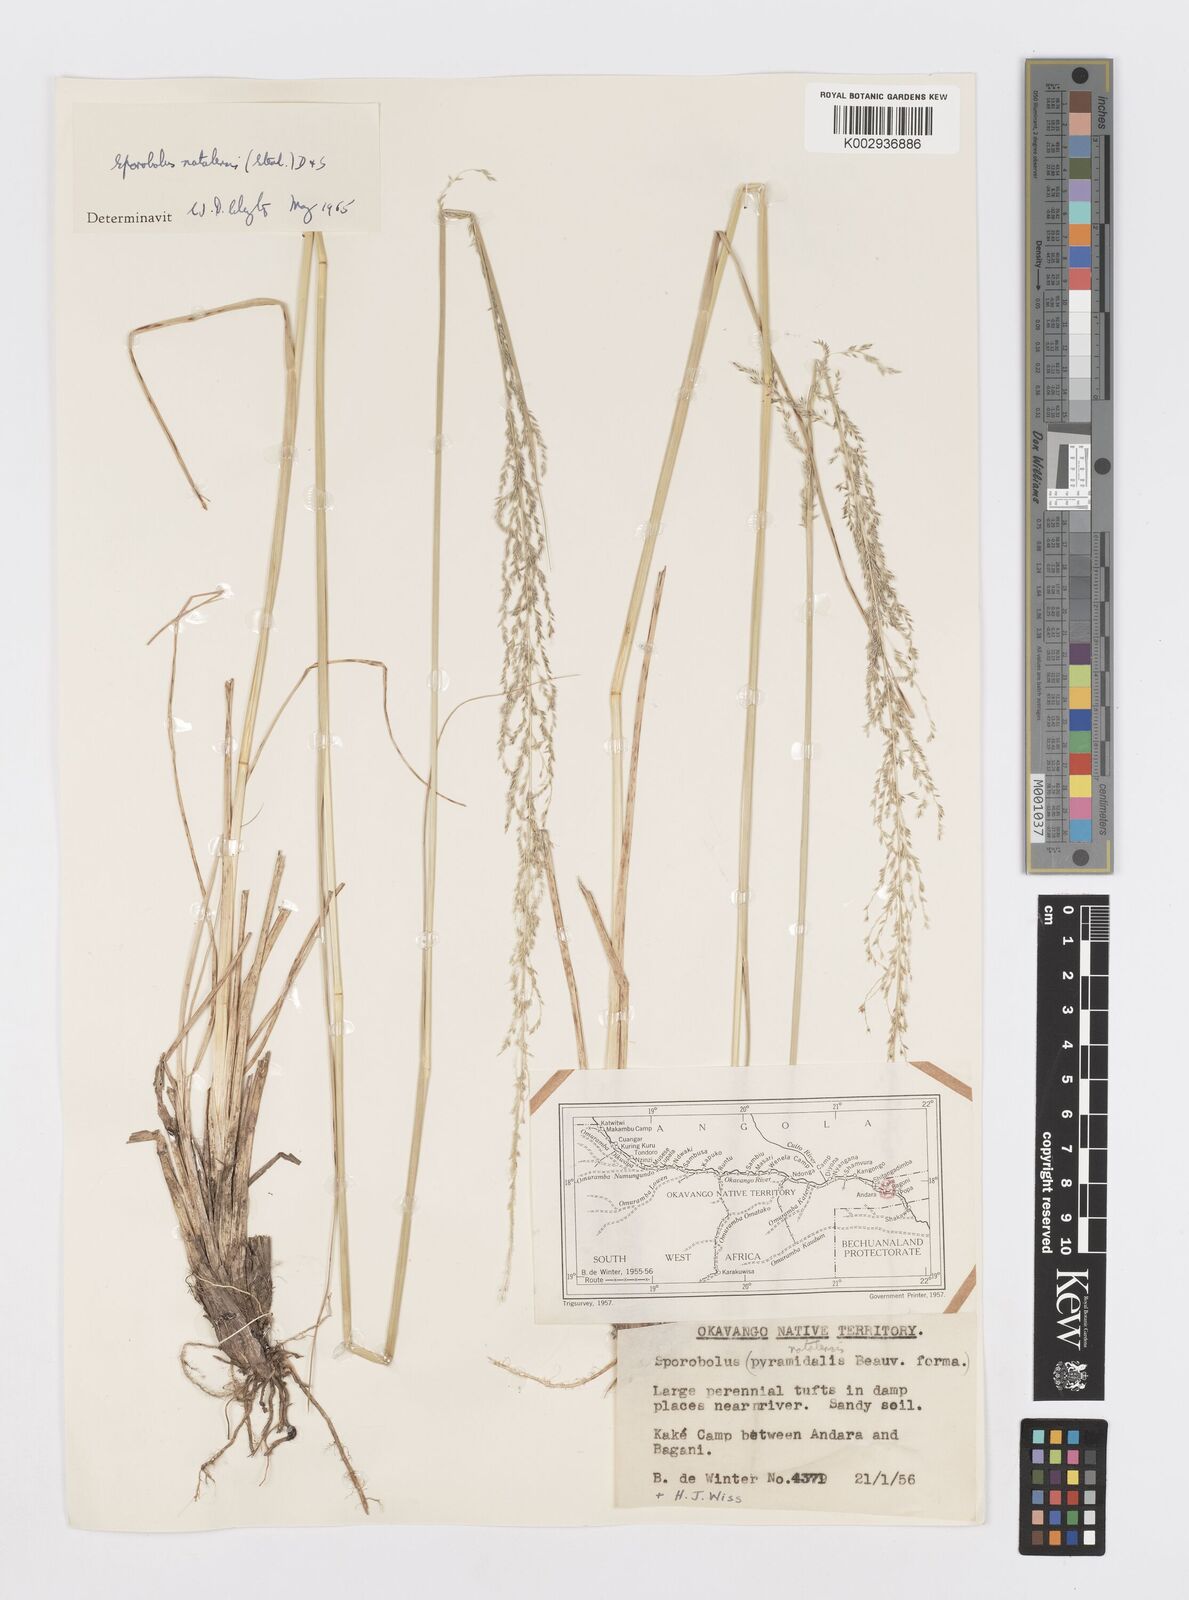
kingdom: Plantae
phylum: Tracheophyta
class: Liliopsida
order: Poales
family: Poaceae
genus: Sporobolus
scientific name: Sporobolus natalensis
